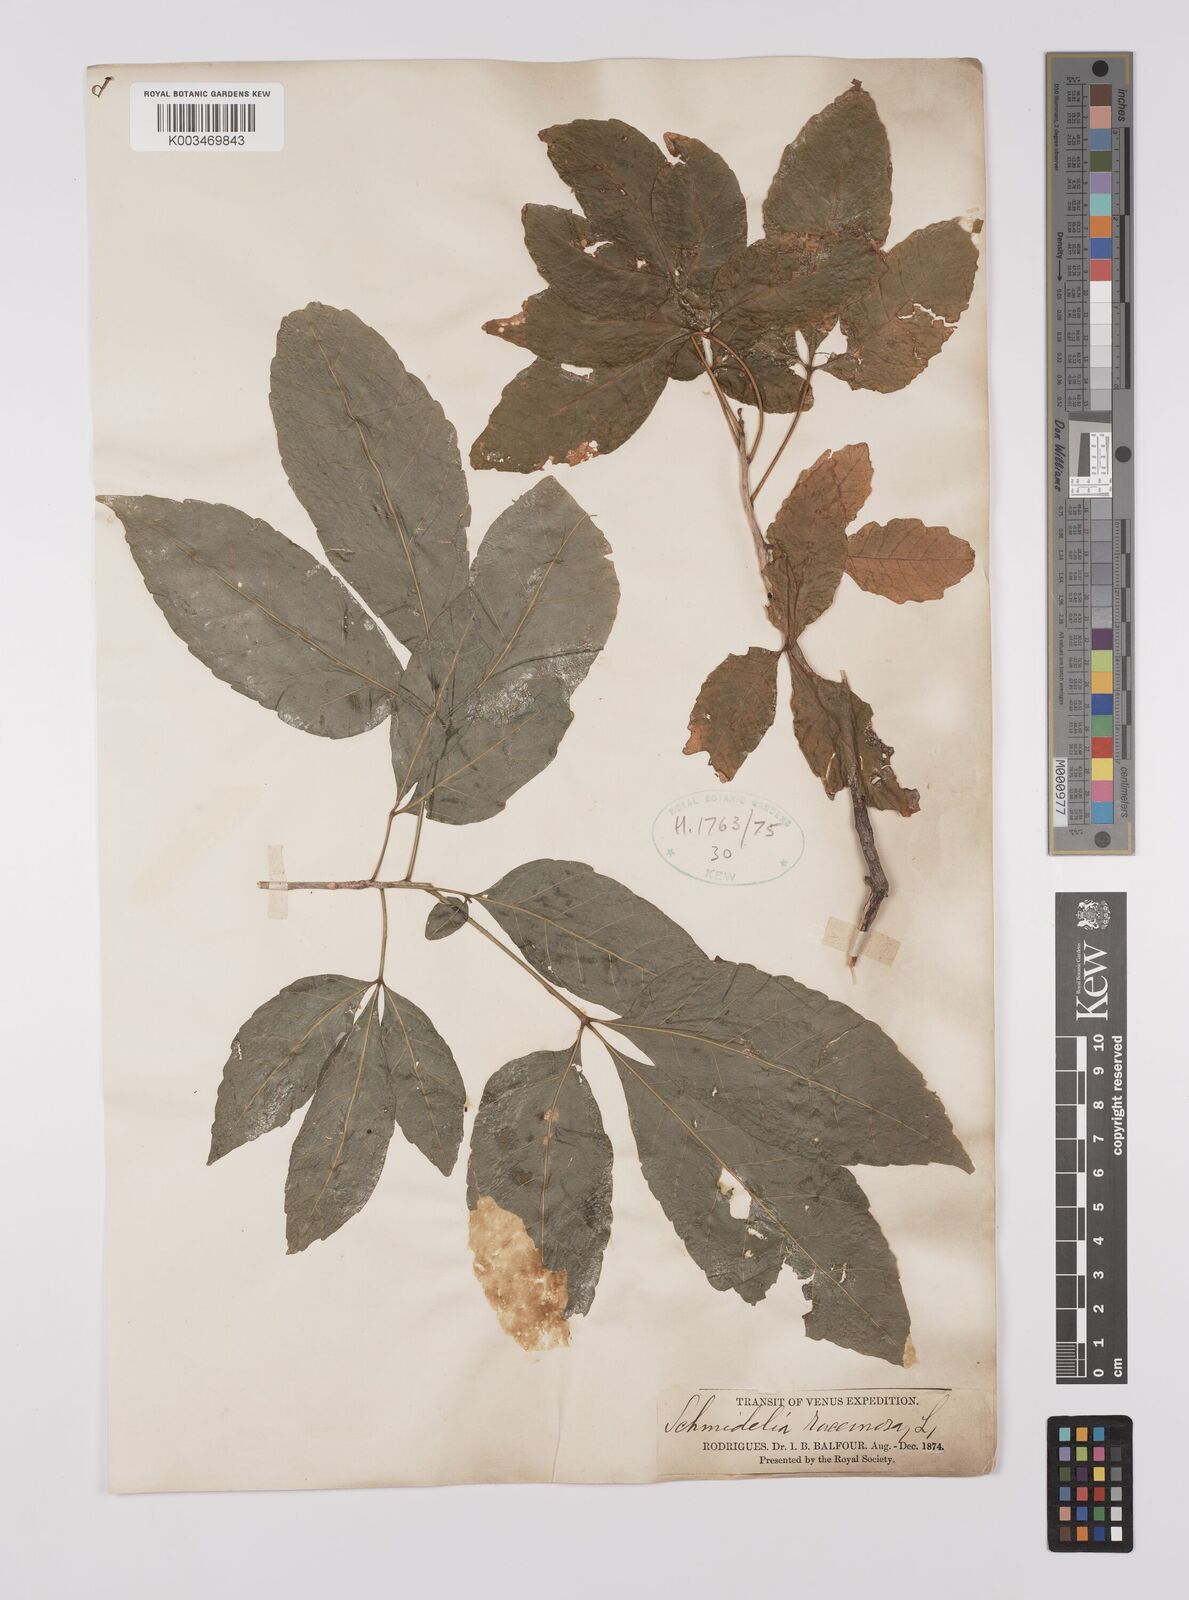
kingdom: Plantae
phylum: Tracheophyta
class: Magnoliopsida
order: Sapindales
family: Sapindaceae
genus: Allophylus
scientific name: Allophylus
